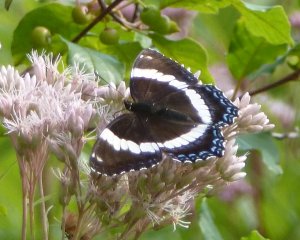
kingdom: Animalia
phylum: Arthropoda
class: Insecta
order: Lepidoptera
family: Nymphalidae
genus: Limenitis
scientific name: Limenitis arthemis
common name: Red-spotted Admiral
